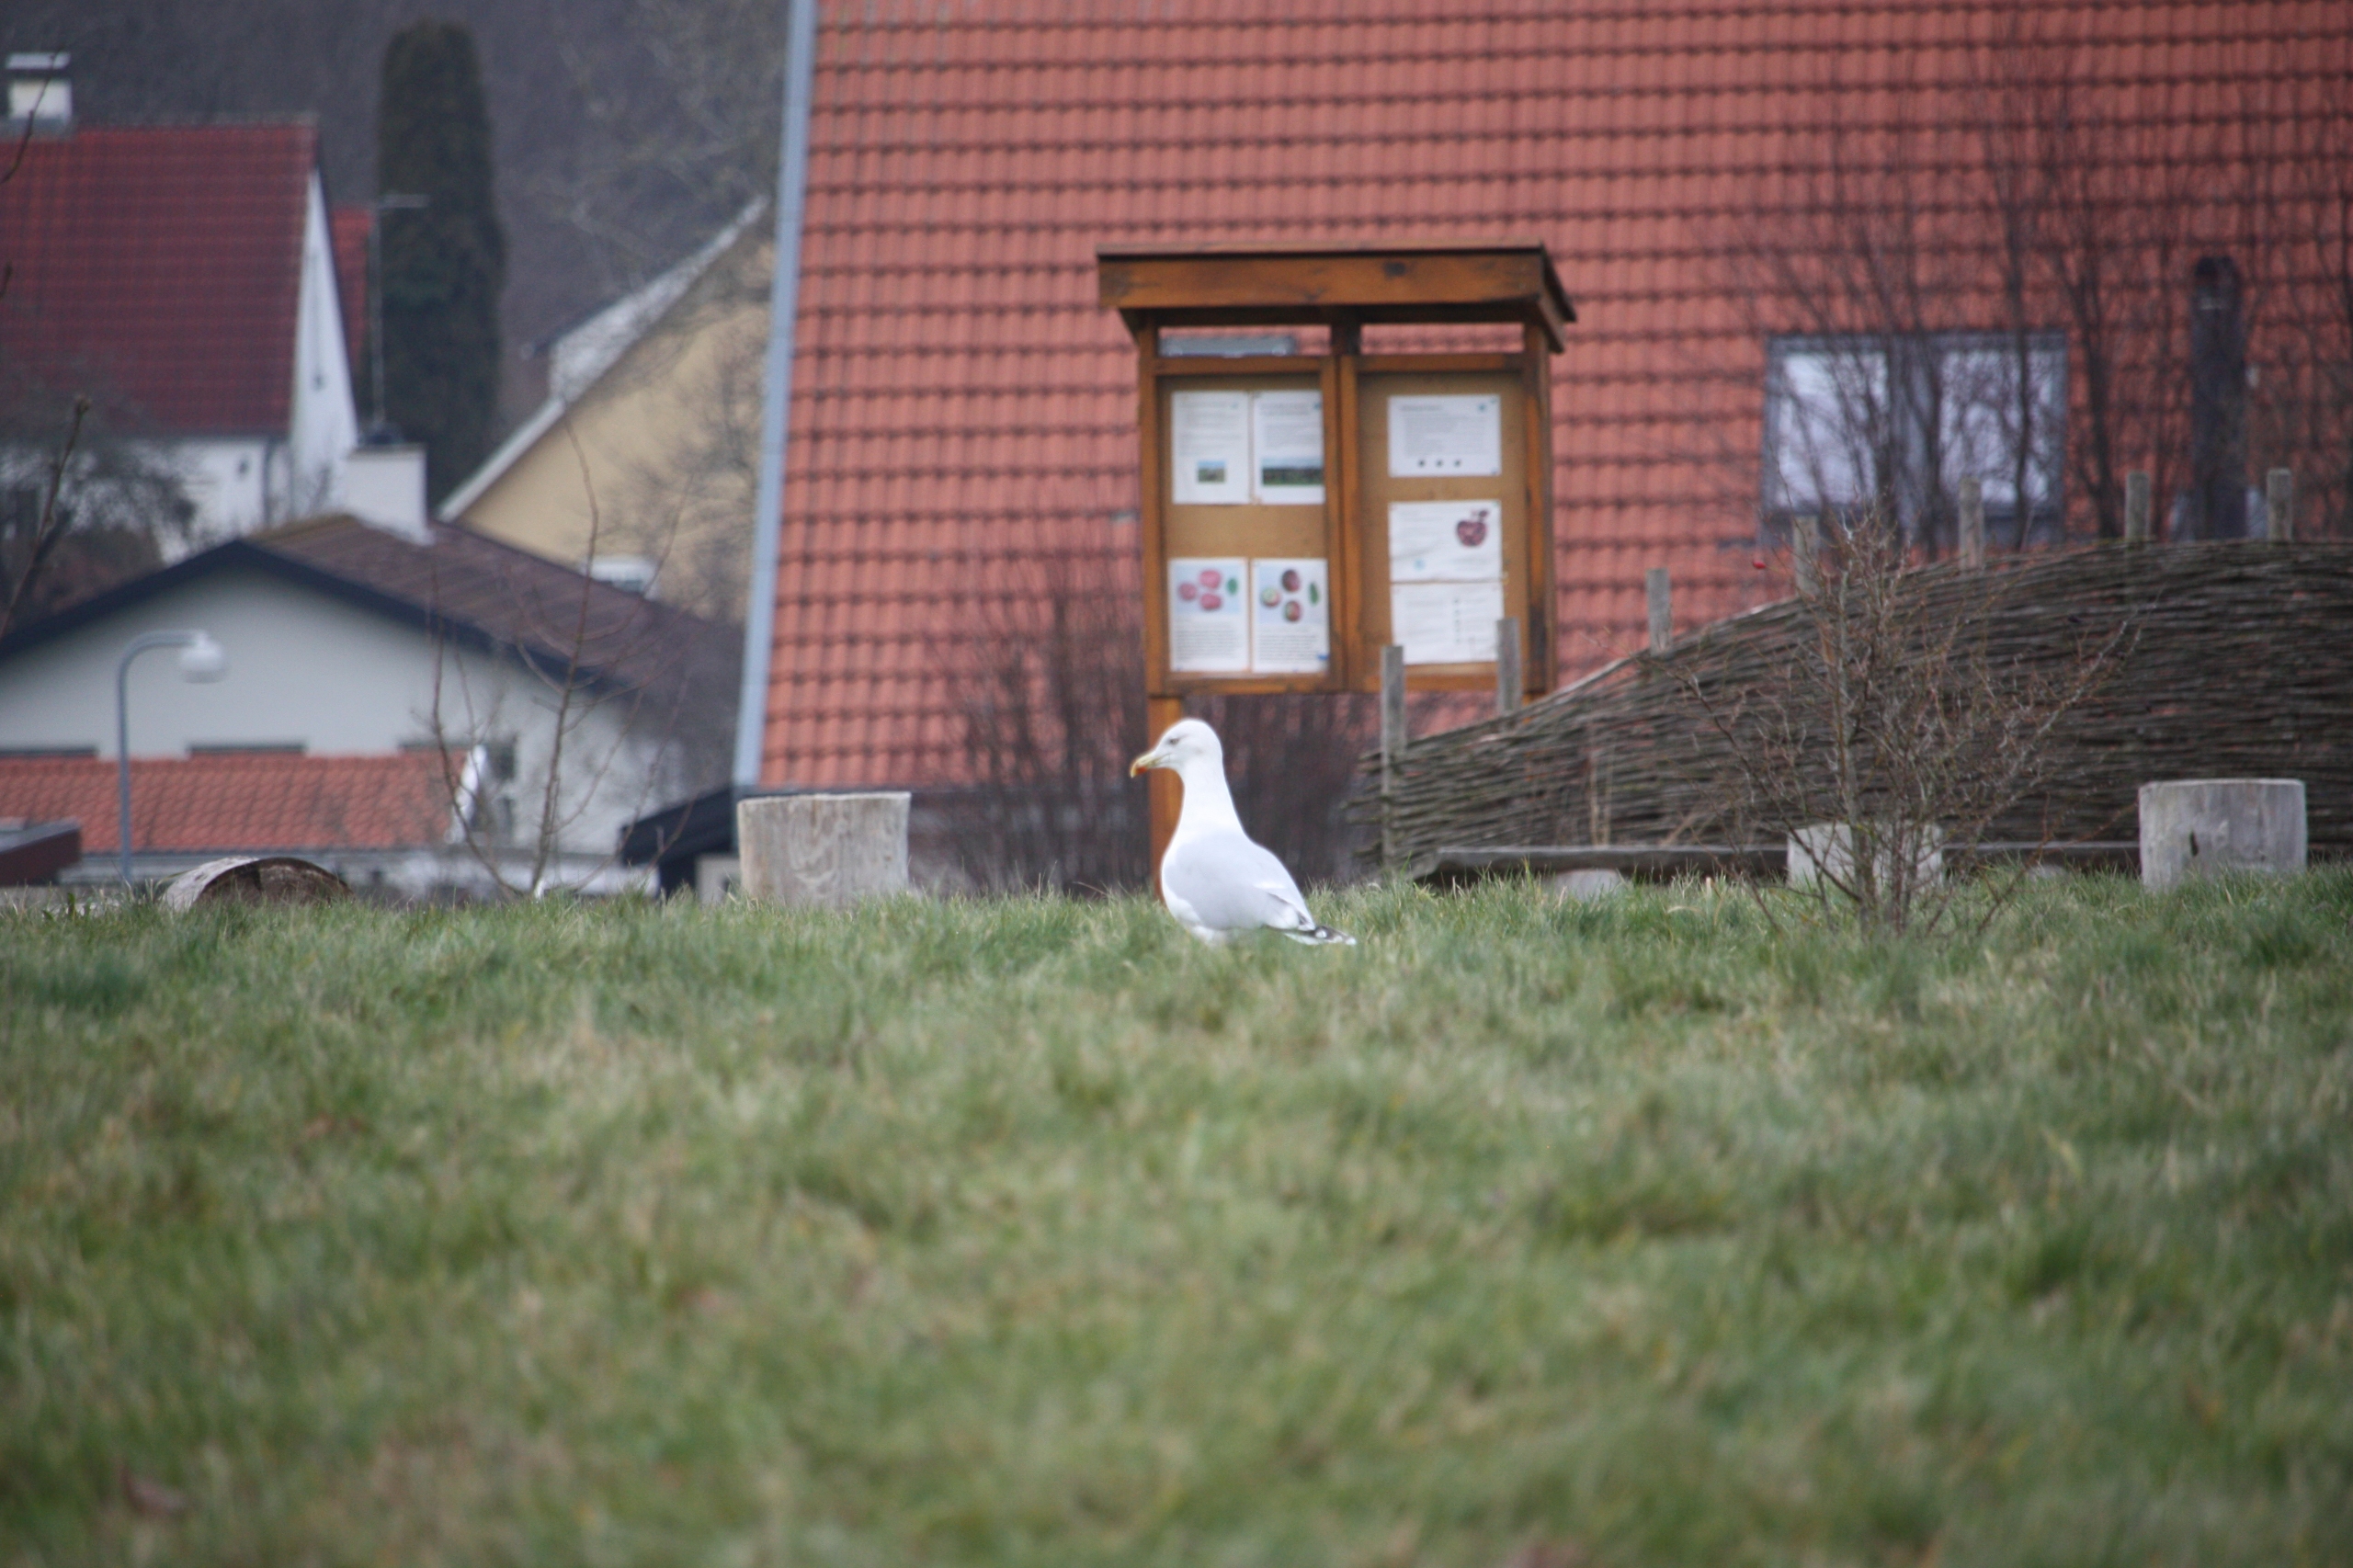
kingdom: Animalia
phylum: Chordata
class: Aves
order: Charadriiformes
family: Laridae
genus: Larus
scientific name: Larus argentatus
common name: Sølvmåge
